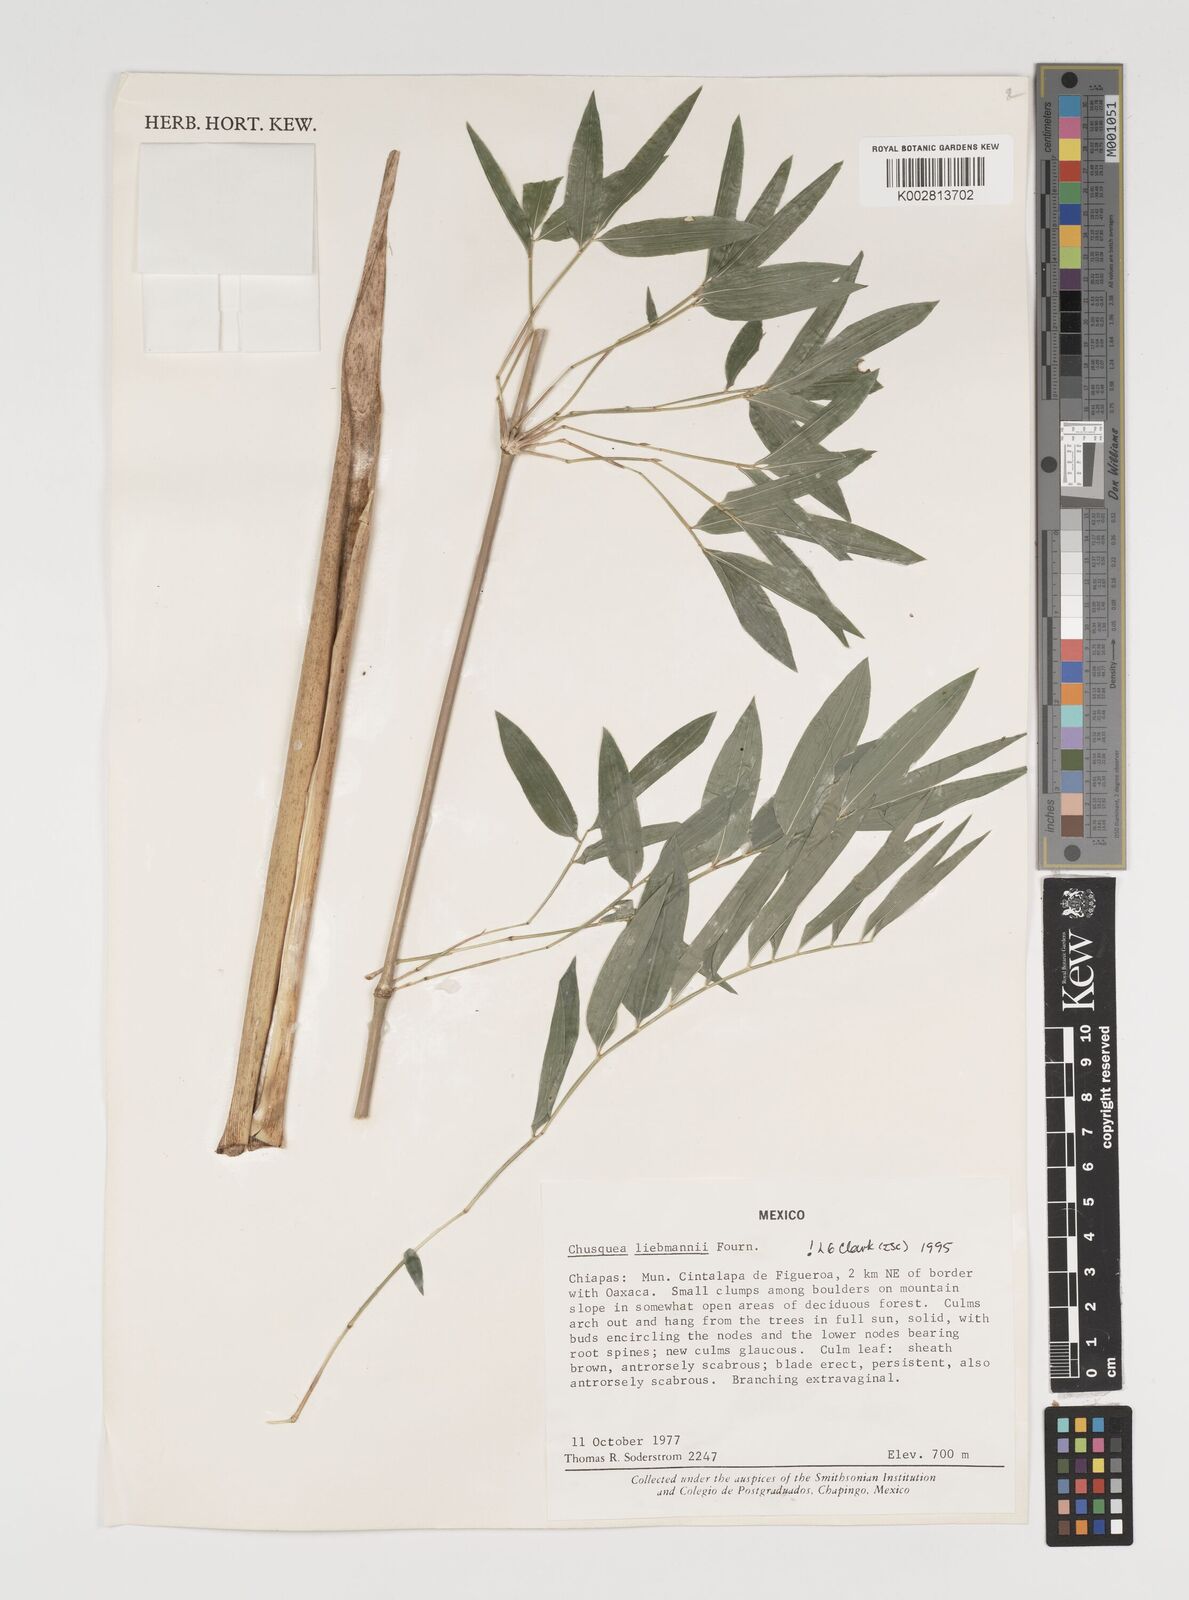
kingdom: Plantae
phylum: Tracheophyta
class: Liliopsida
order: Poales
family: Poaceae
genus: Chusquea
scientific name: Chusquea liebmannii
